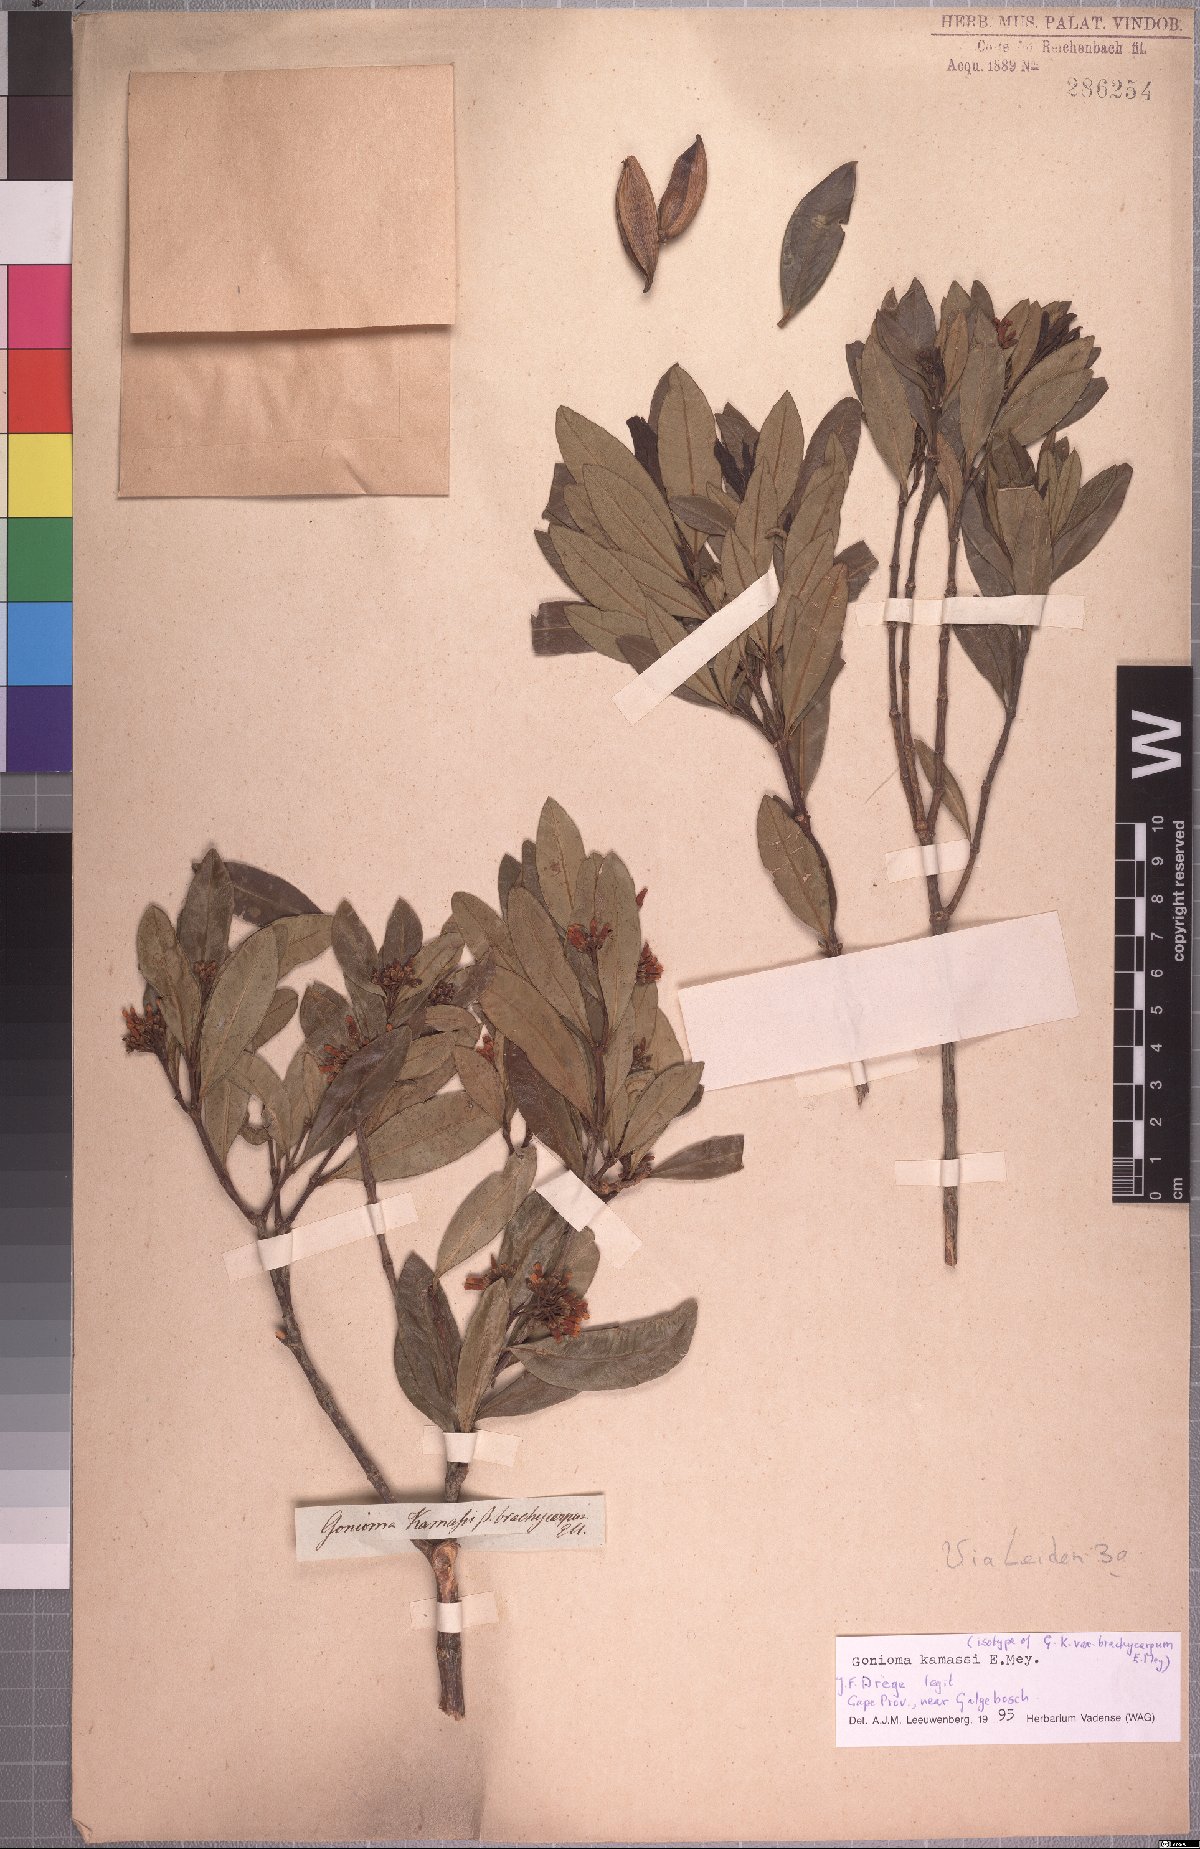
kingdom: Plantae
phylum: Tracheophyta
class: Magnoliopsida
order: Gentianales
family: Apocynaceae
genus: Gonioma
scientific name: Gonioma kamassi
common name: Kamassi
